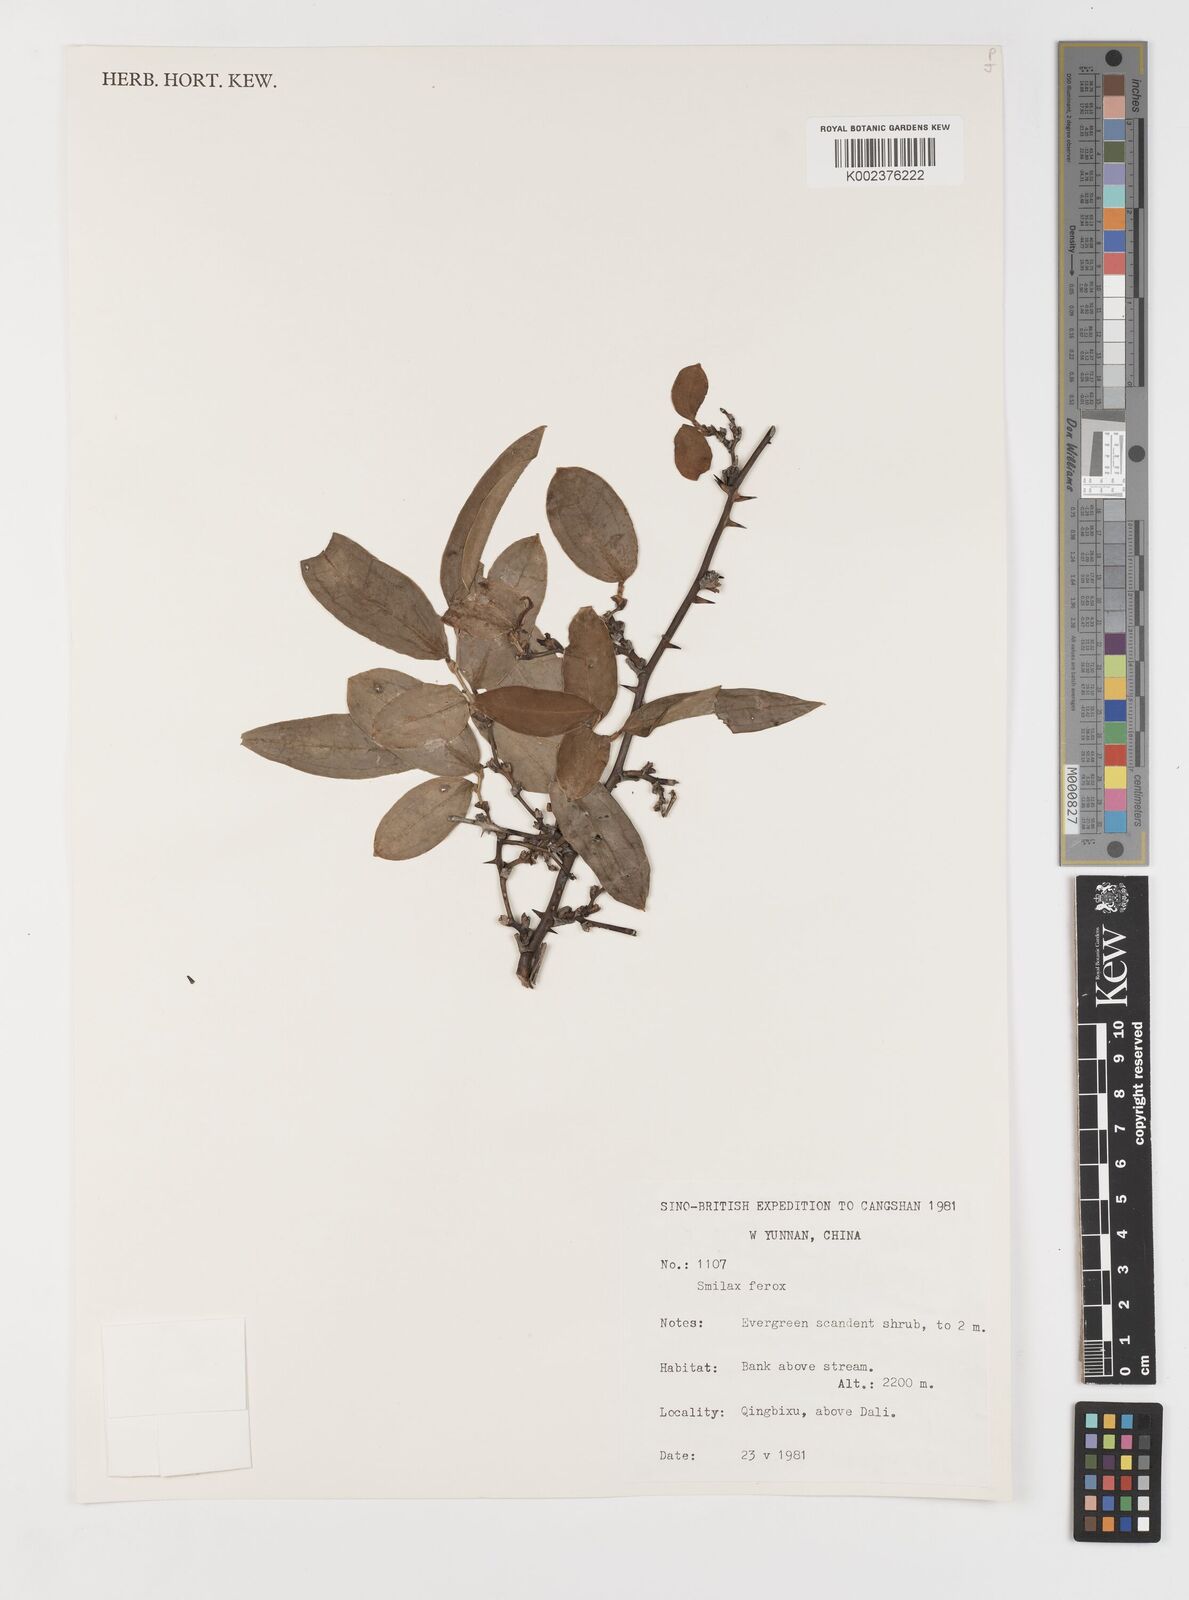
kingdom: Plantae
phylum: Tracheophyta
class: Liliopsida
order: Liliales
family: Smilacaceae
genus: Smilax
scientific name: Smilax ferox
